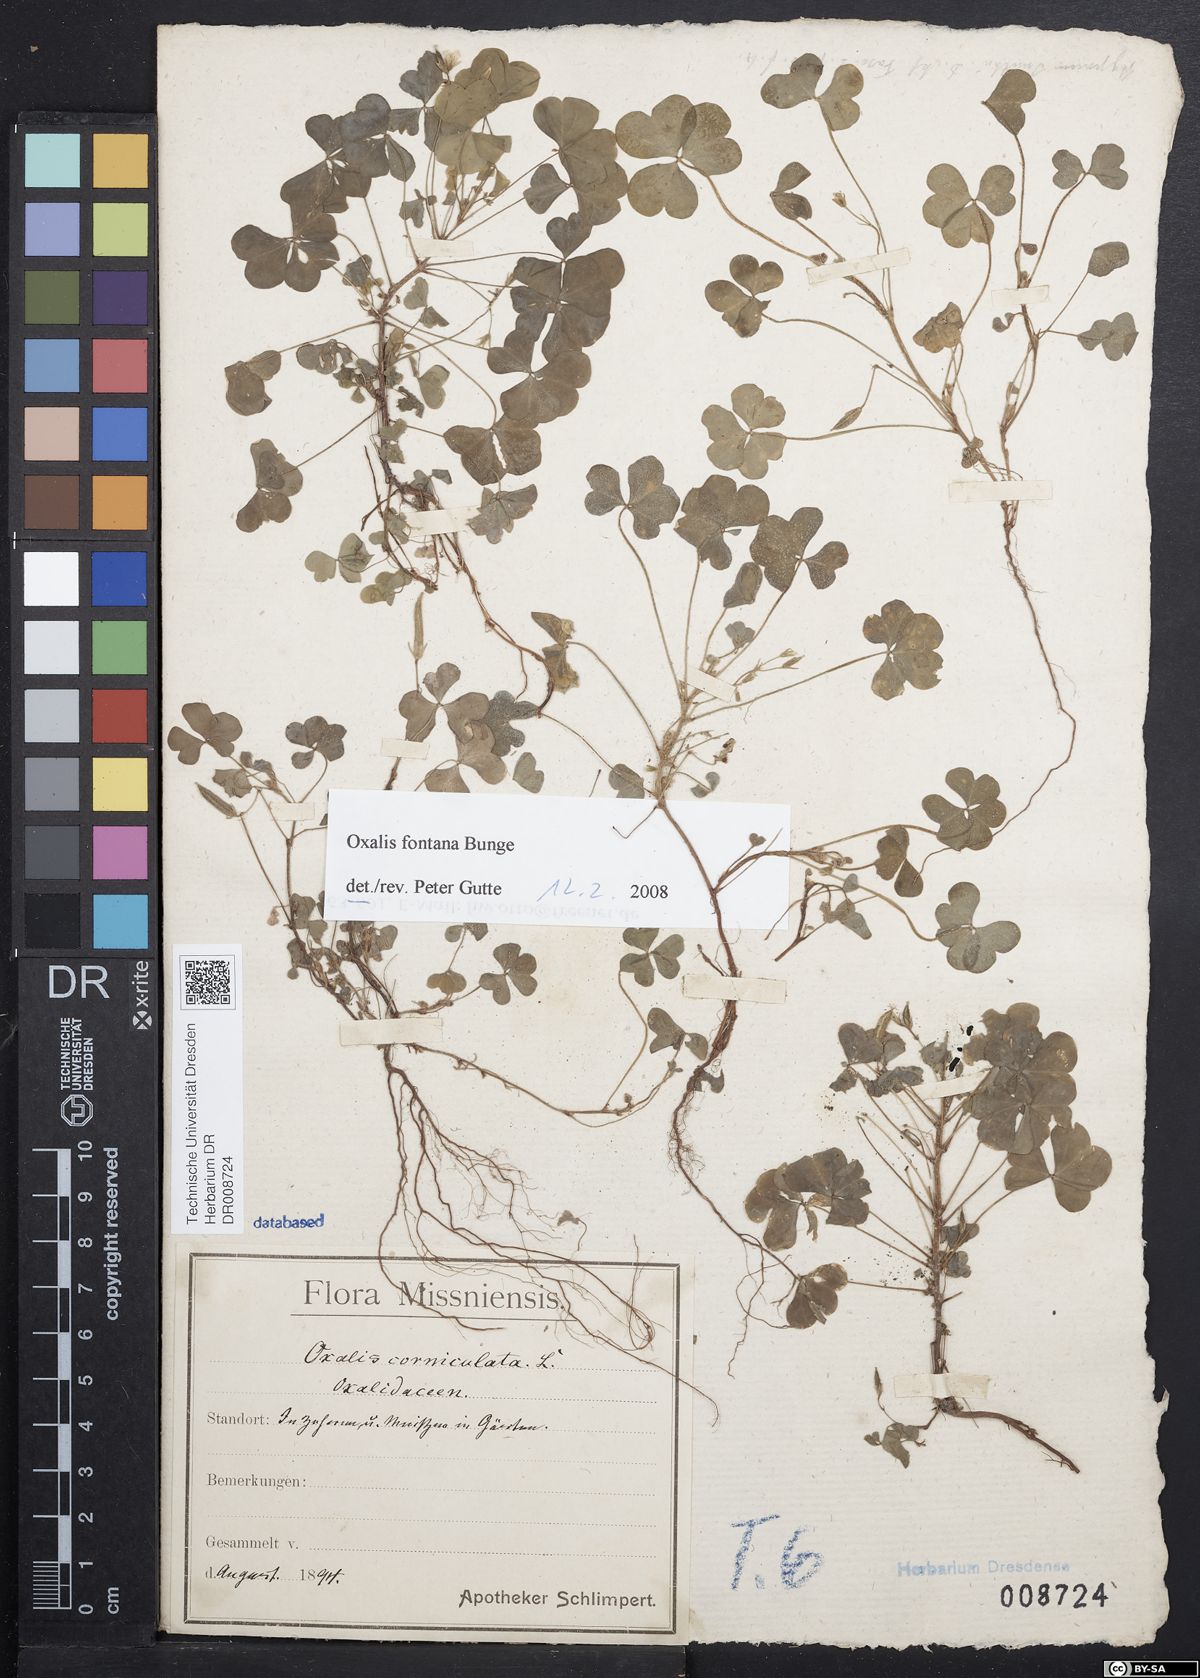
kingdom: Plantae
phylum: Tracheophyta
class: Magnoliopsida
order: Oxalidales
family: Oxalidaceae
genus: Oxalis
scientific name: Oxalis stricta
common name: Upright yellow-sorrel
